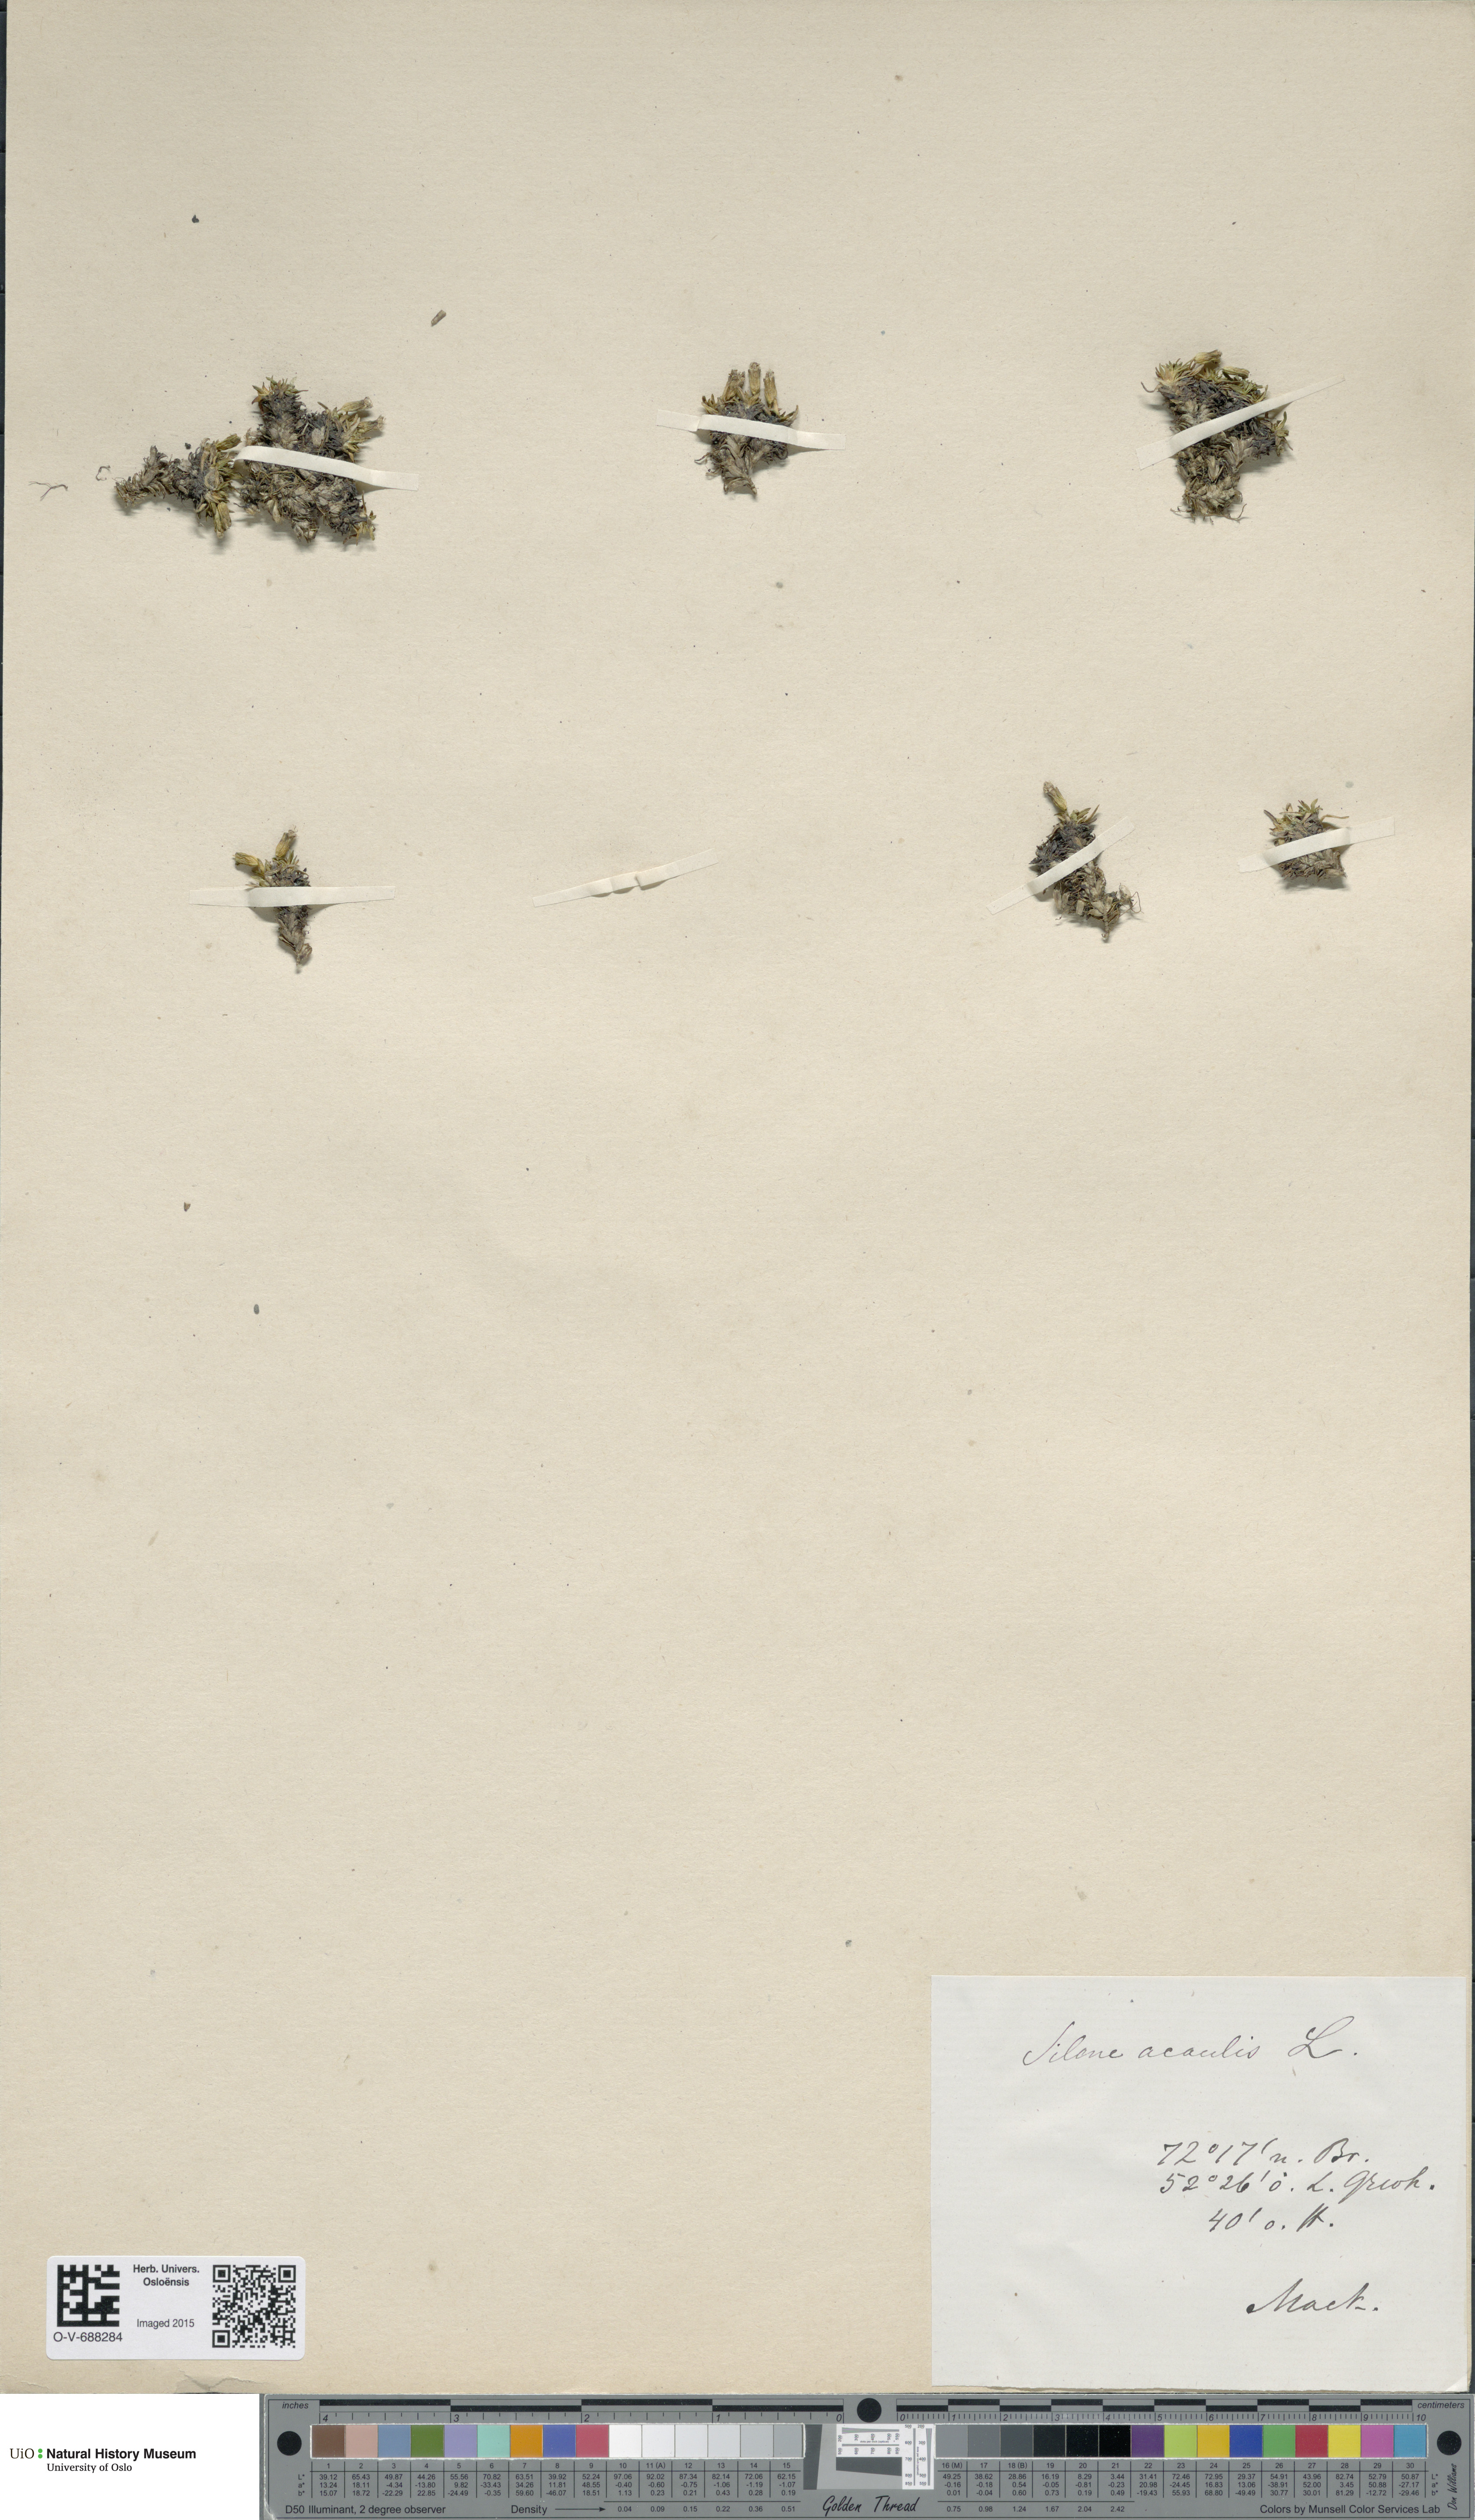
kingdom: Plantae
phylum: Tracheophyta
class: Magnoliopsida
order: Caryophyllales
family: Caryophyllaceae
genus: Silene
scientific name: Silene acaulis
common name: Moss campion
